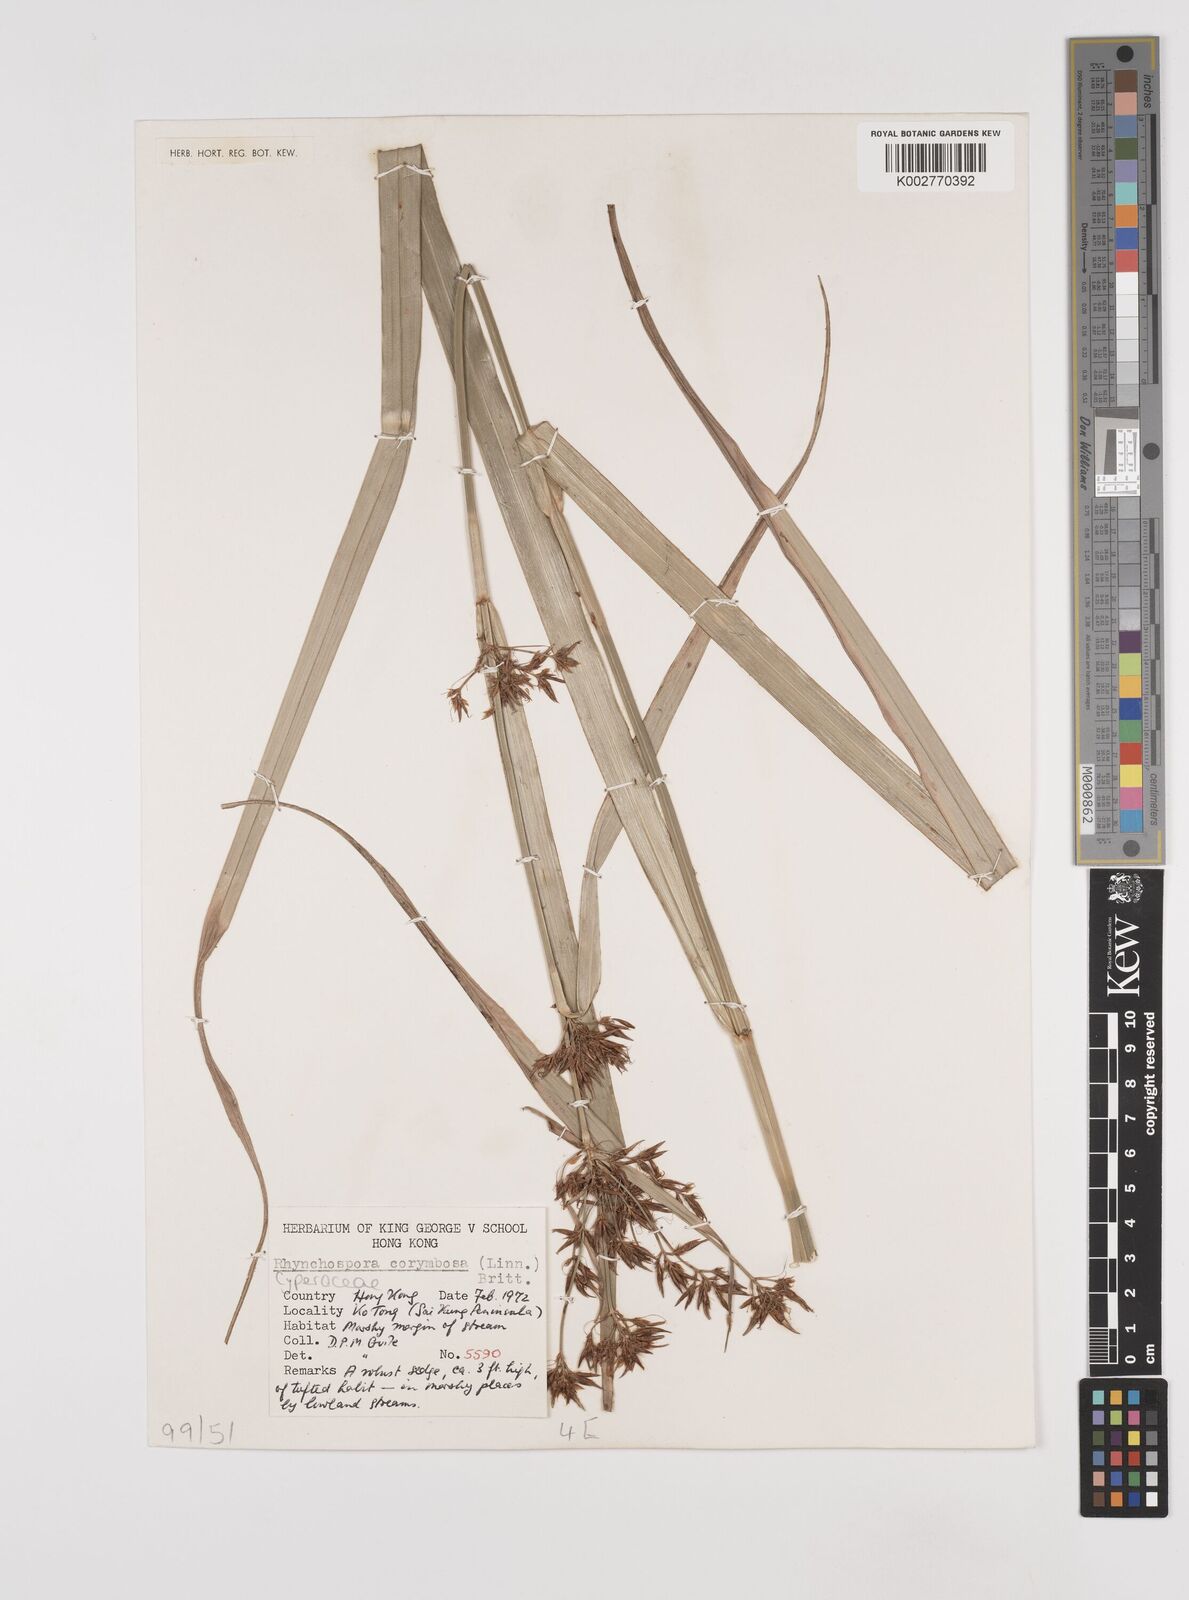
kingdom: Plantae
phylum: Tracheophyta
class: Liliopsida
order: Poales
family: Cyperaceae
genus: Rhynchospora
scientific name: Rhynchospora malasica
